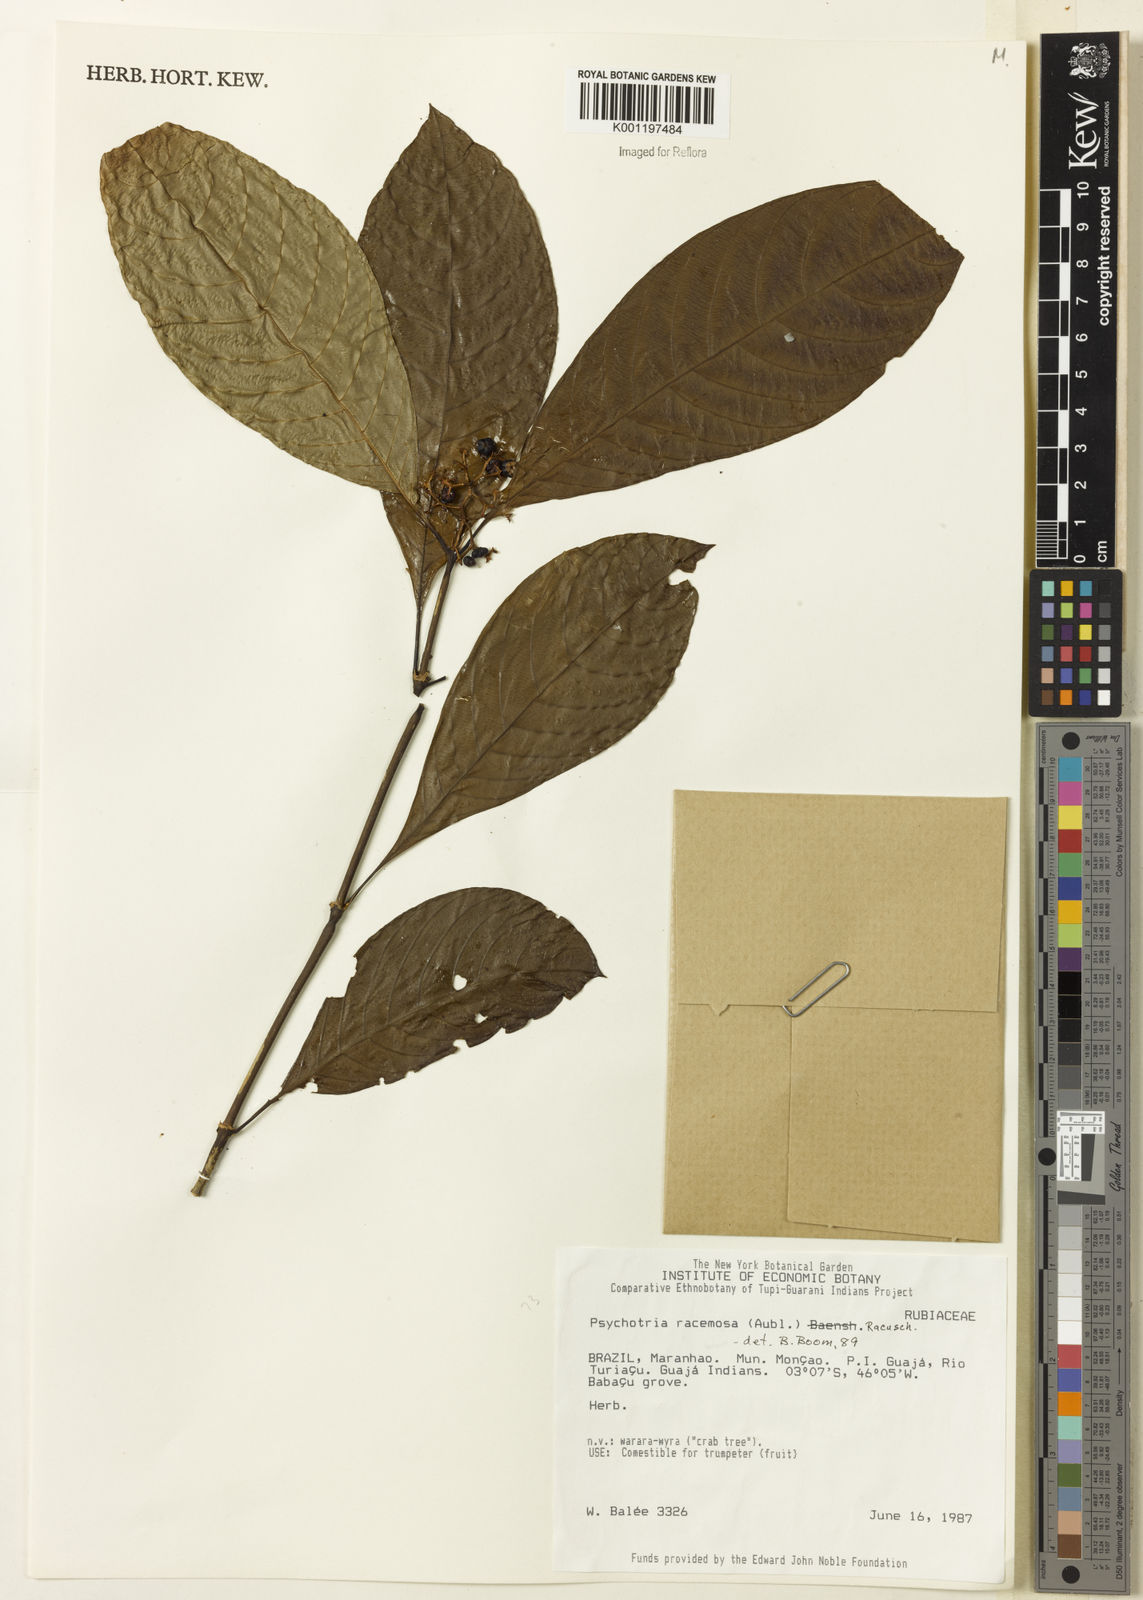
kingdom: Plantae
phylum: Tracheophyta
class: Magnoliopsida
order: Gentianales
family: Rubiaceae
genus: Palicourea
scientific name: Palicourea racemosa
